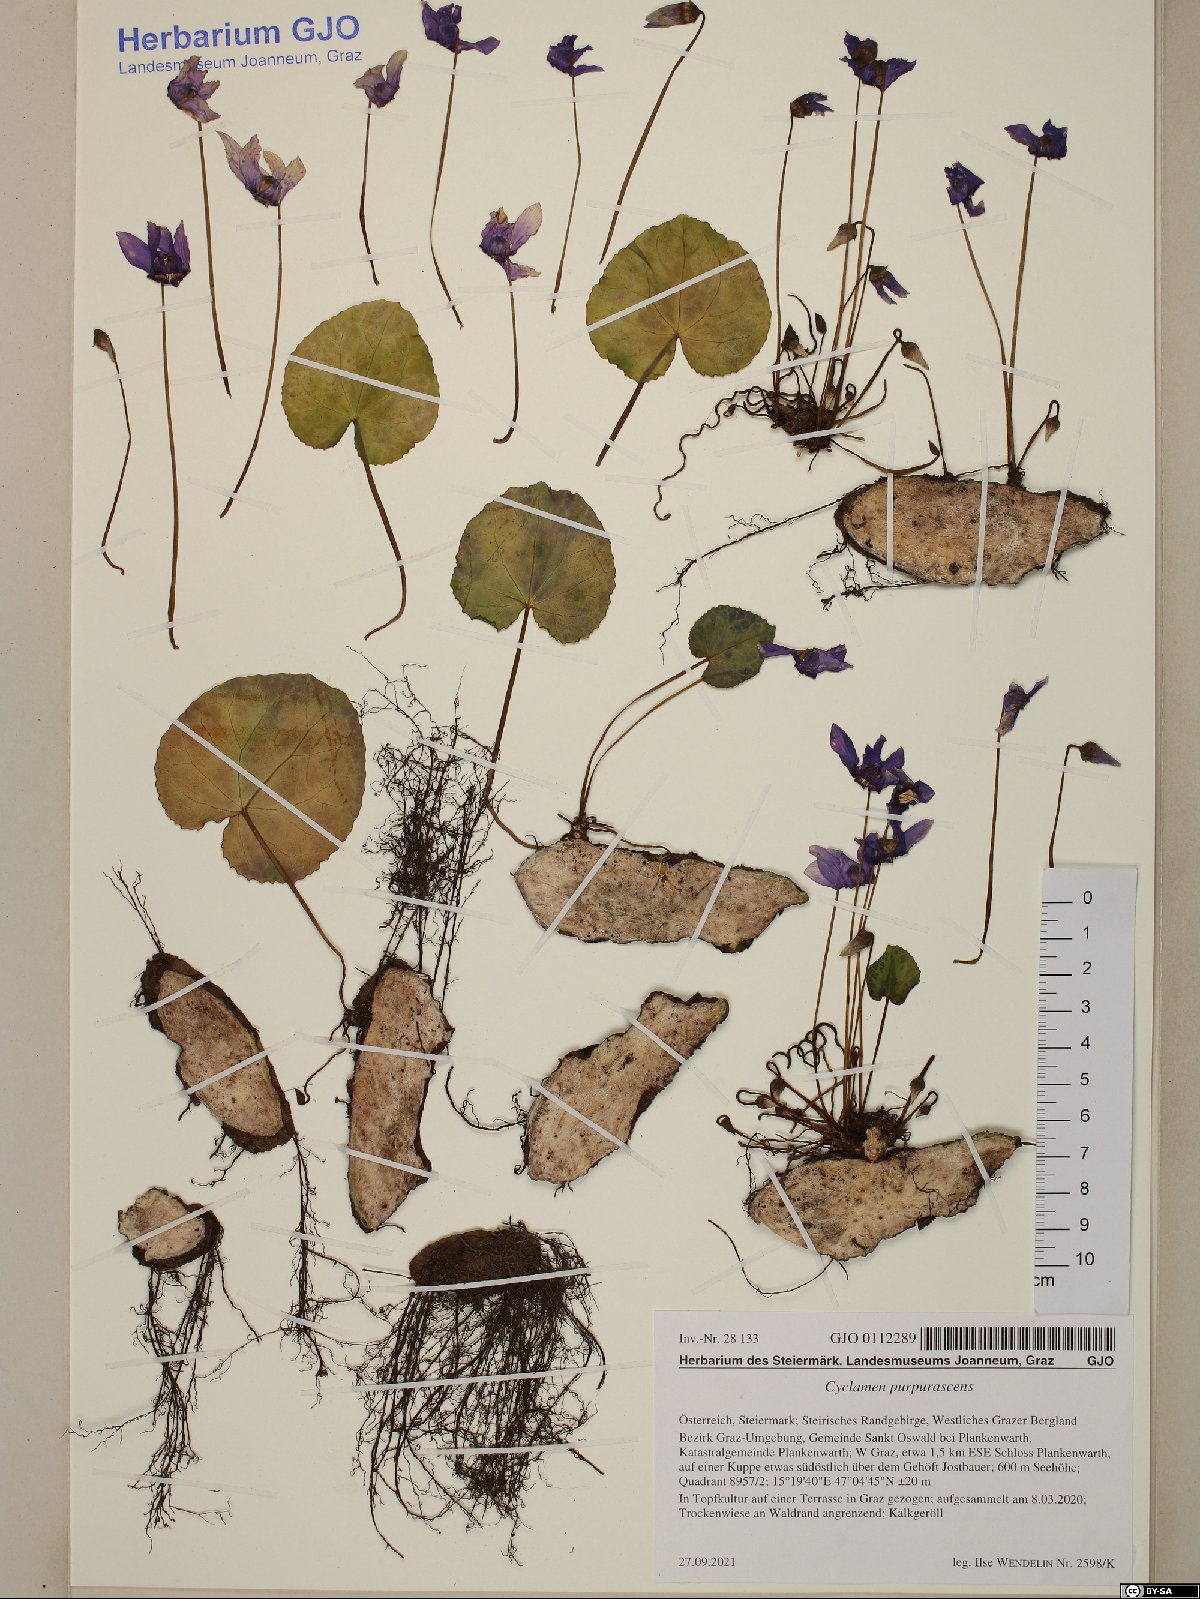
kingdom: Plantae
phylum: Tracheophyta
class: Magnoliopsida
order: Ericales
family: Primulaceae
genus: Cyclamen
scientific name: Cyclamen purpurascens
